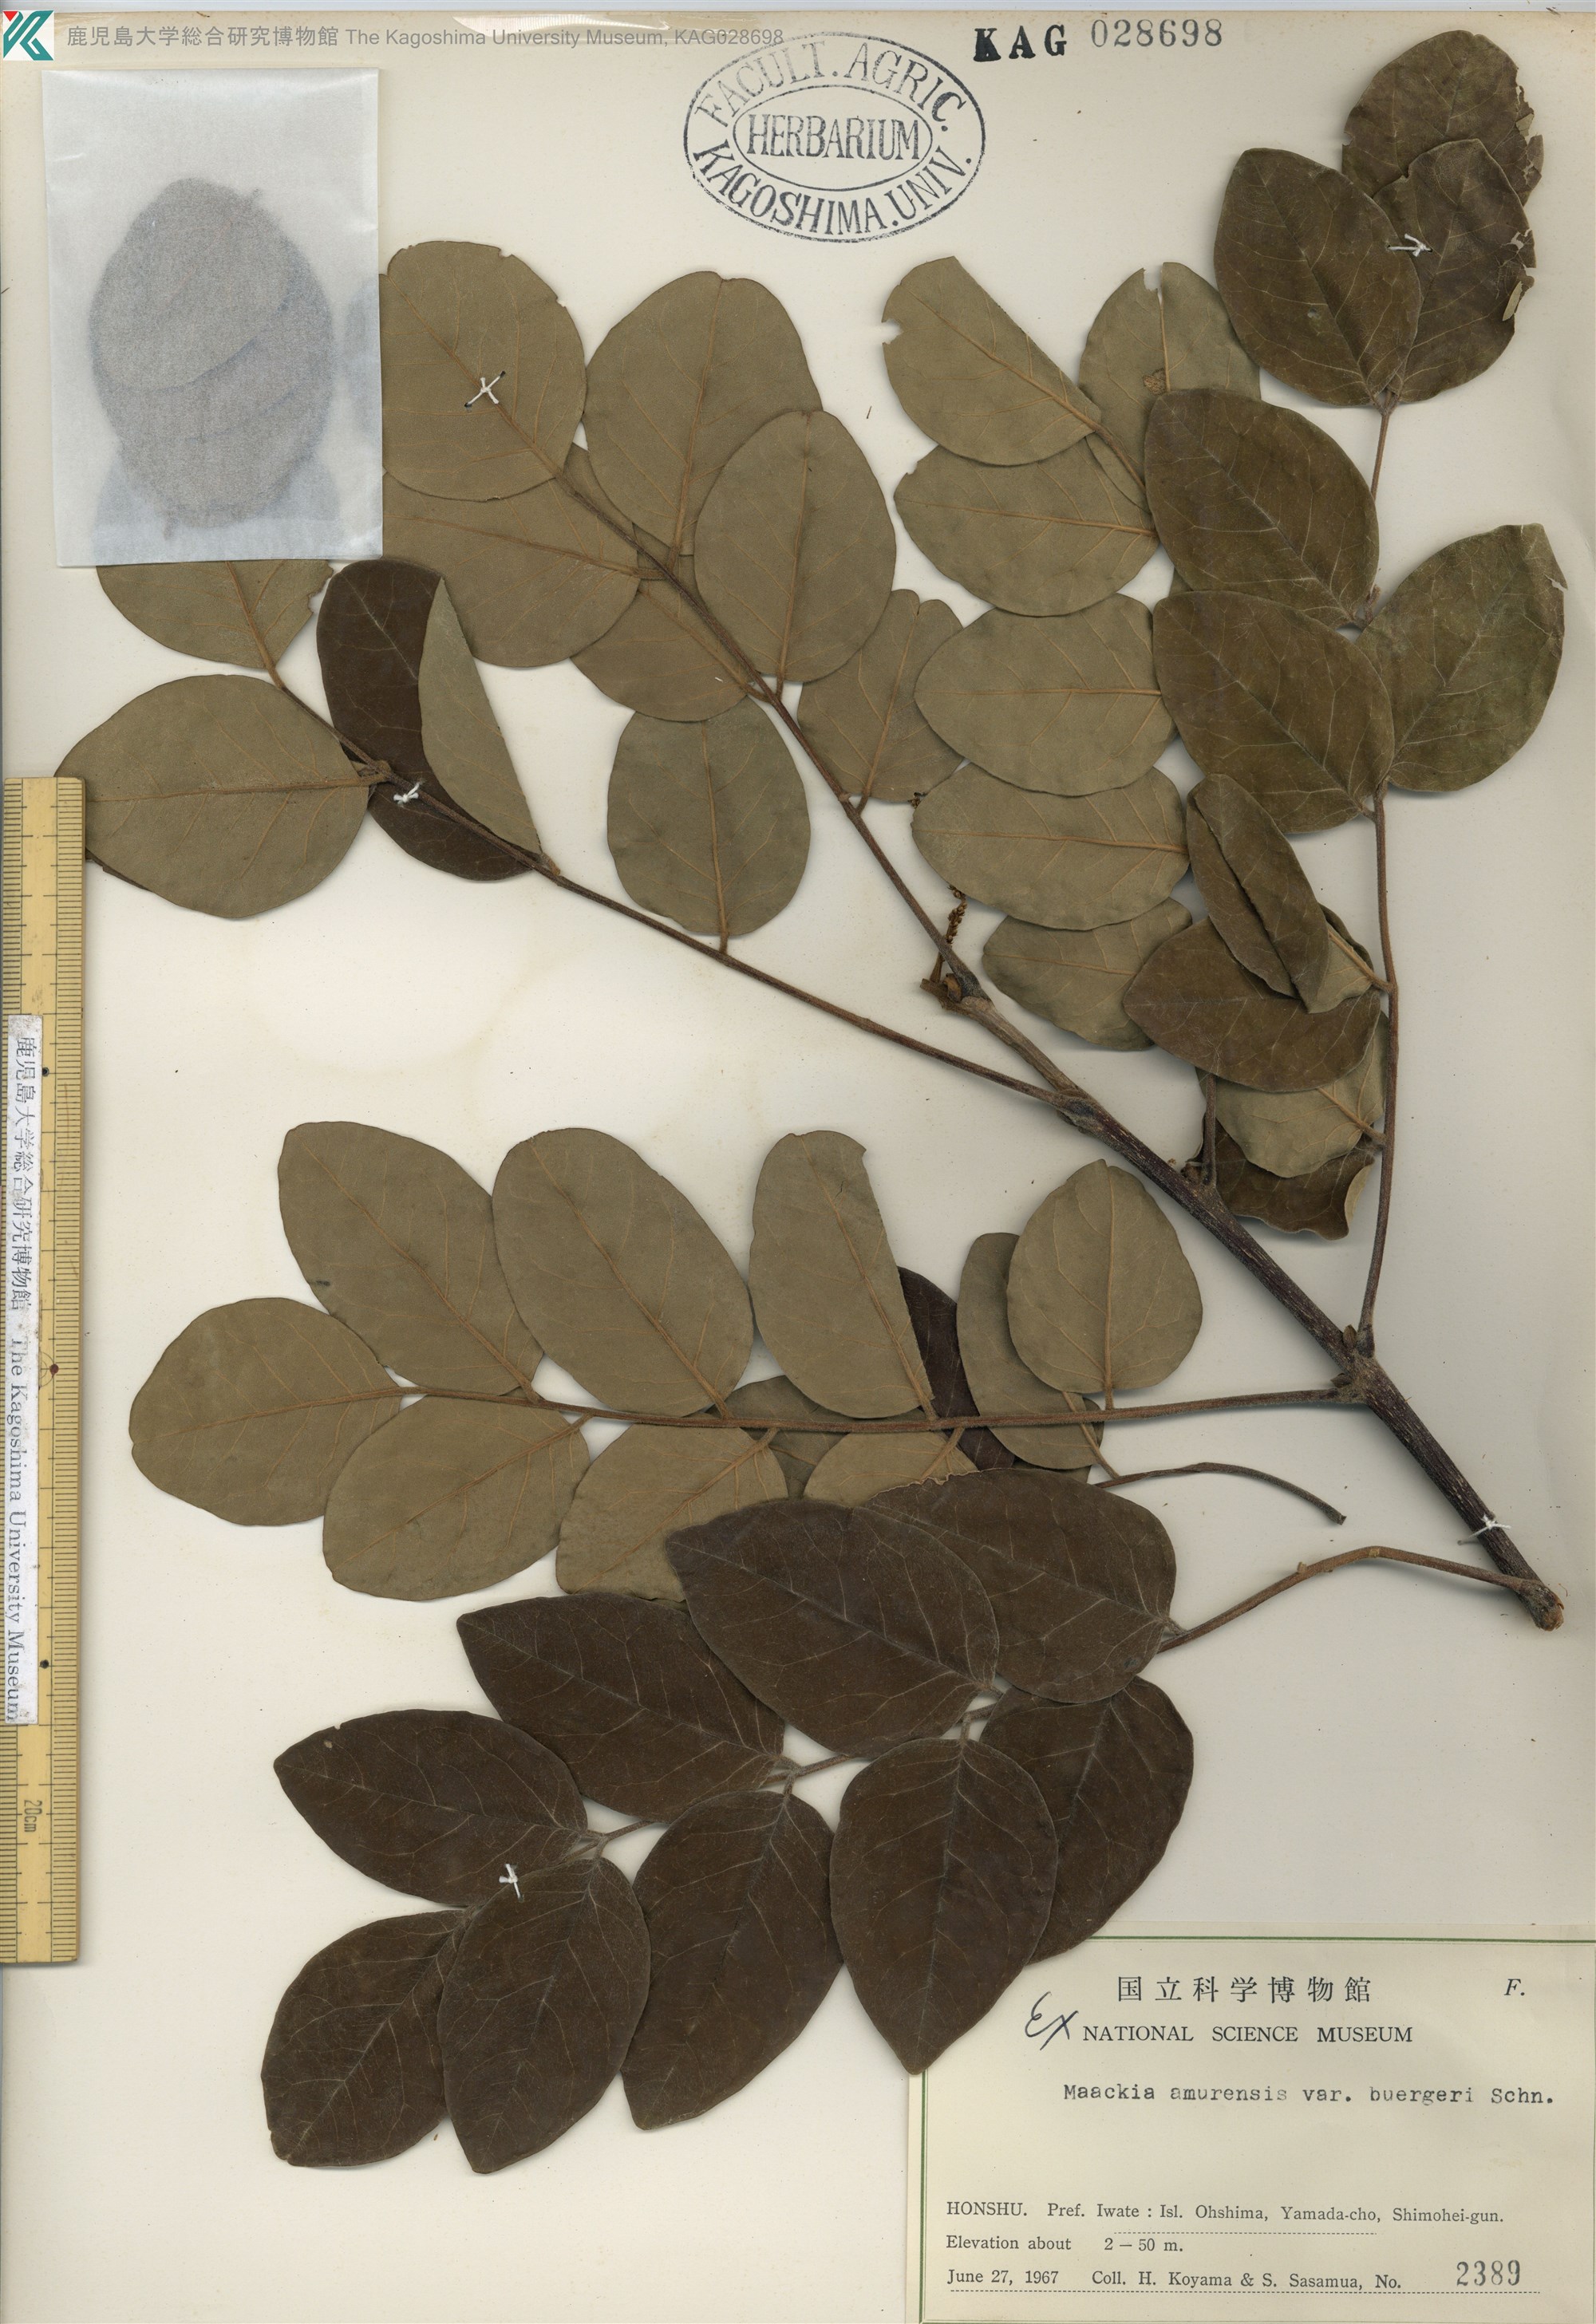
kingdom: Plantae
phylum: Tracheophyta
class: Magnoliopsida
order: Fabales
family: Fabaceae
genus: Maackia
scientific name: Maackia amurensis
